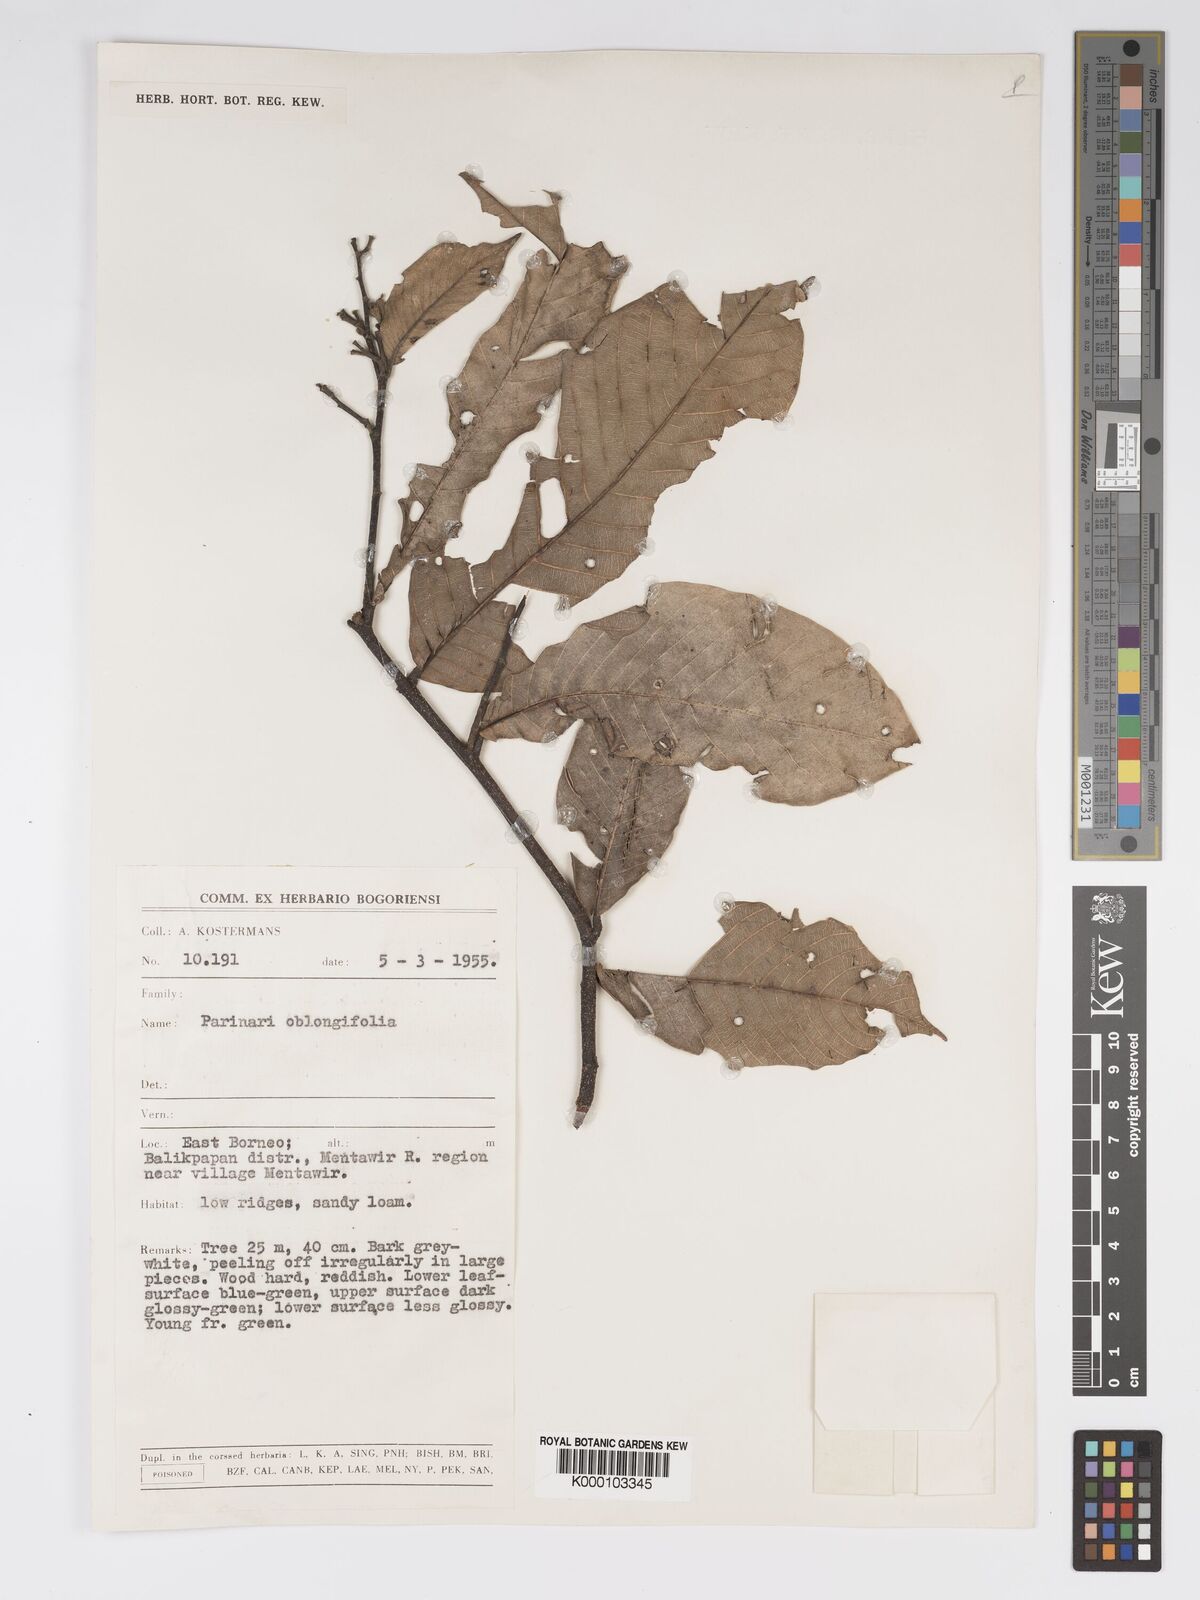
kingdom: Plantae
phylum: Tracheophyta
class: Magnoliopsida
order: Malpighiales
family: Chrysobalanaceae
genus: Parinari
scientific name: Parinari oblongifolia
